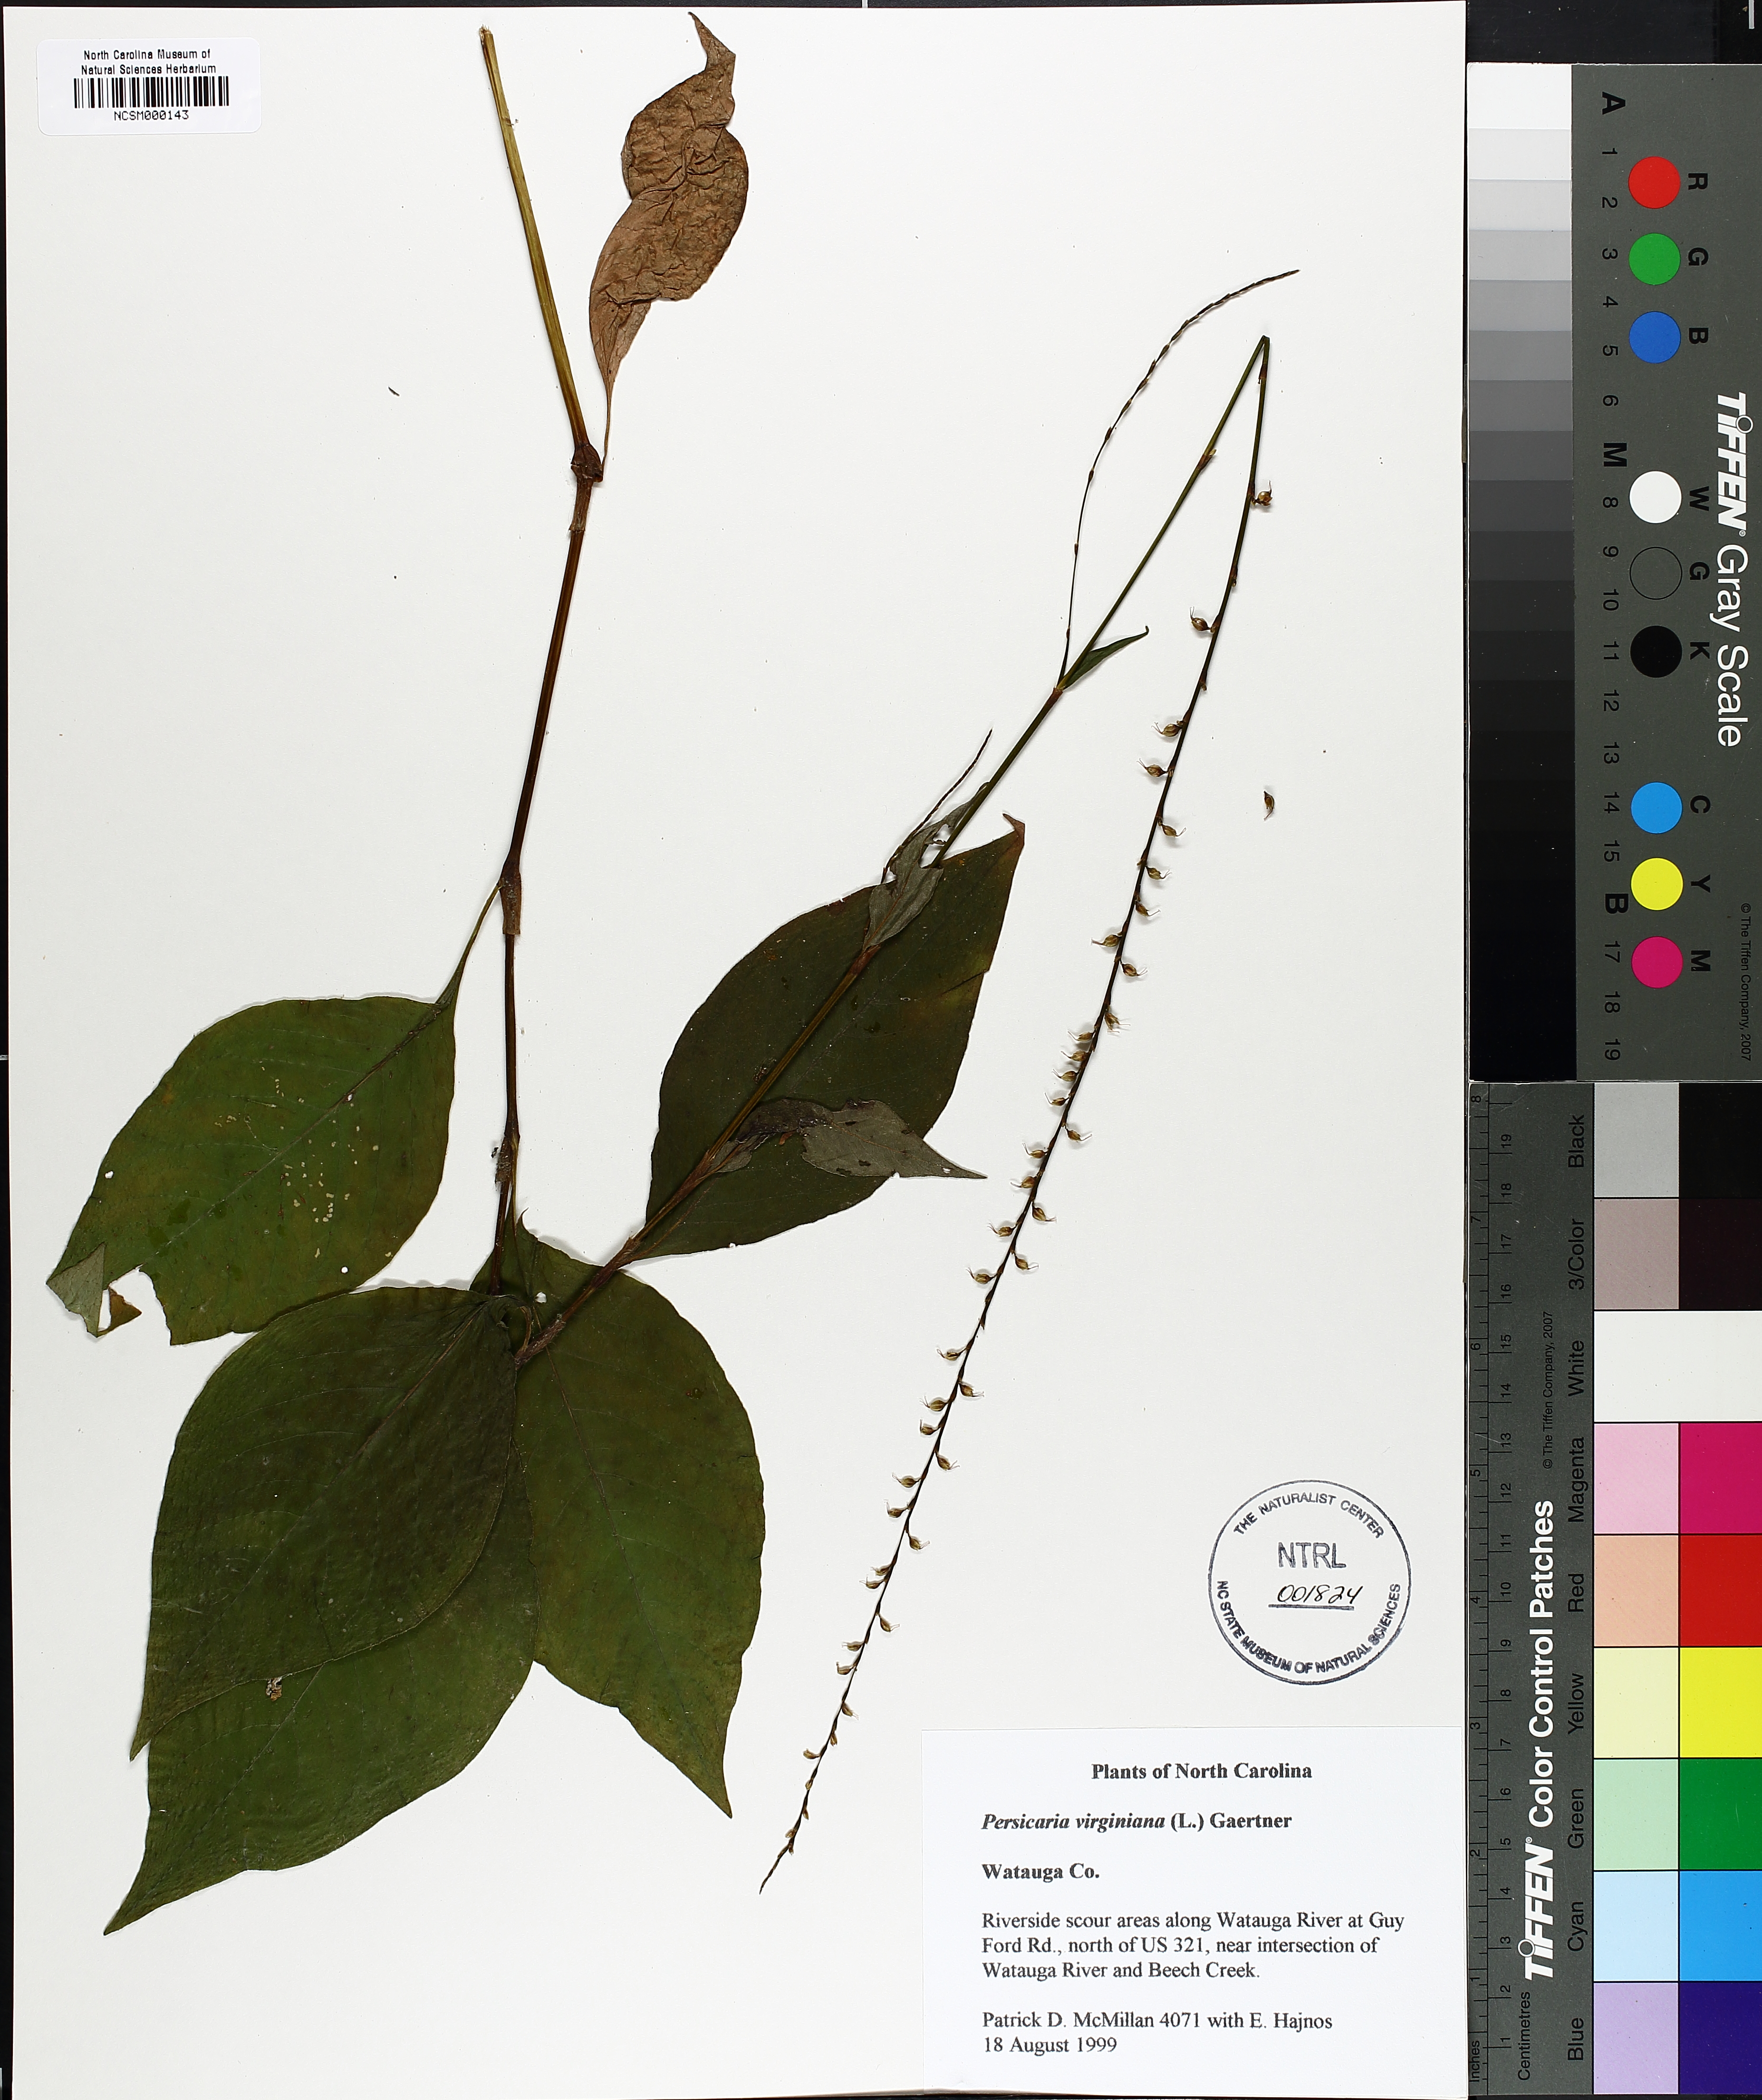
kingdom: Plantae
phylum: Tracheophyta
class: Magnoliopsida
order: Caryophyllales
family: Polygonaceae
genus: Persicaria
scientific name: Persicaria virginiana
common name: Jumpseed
